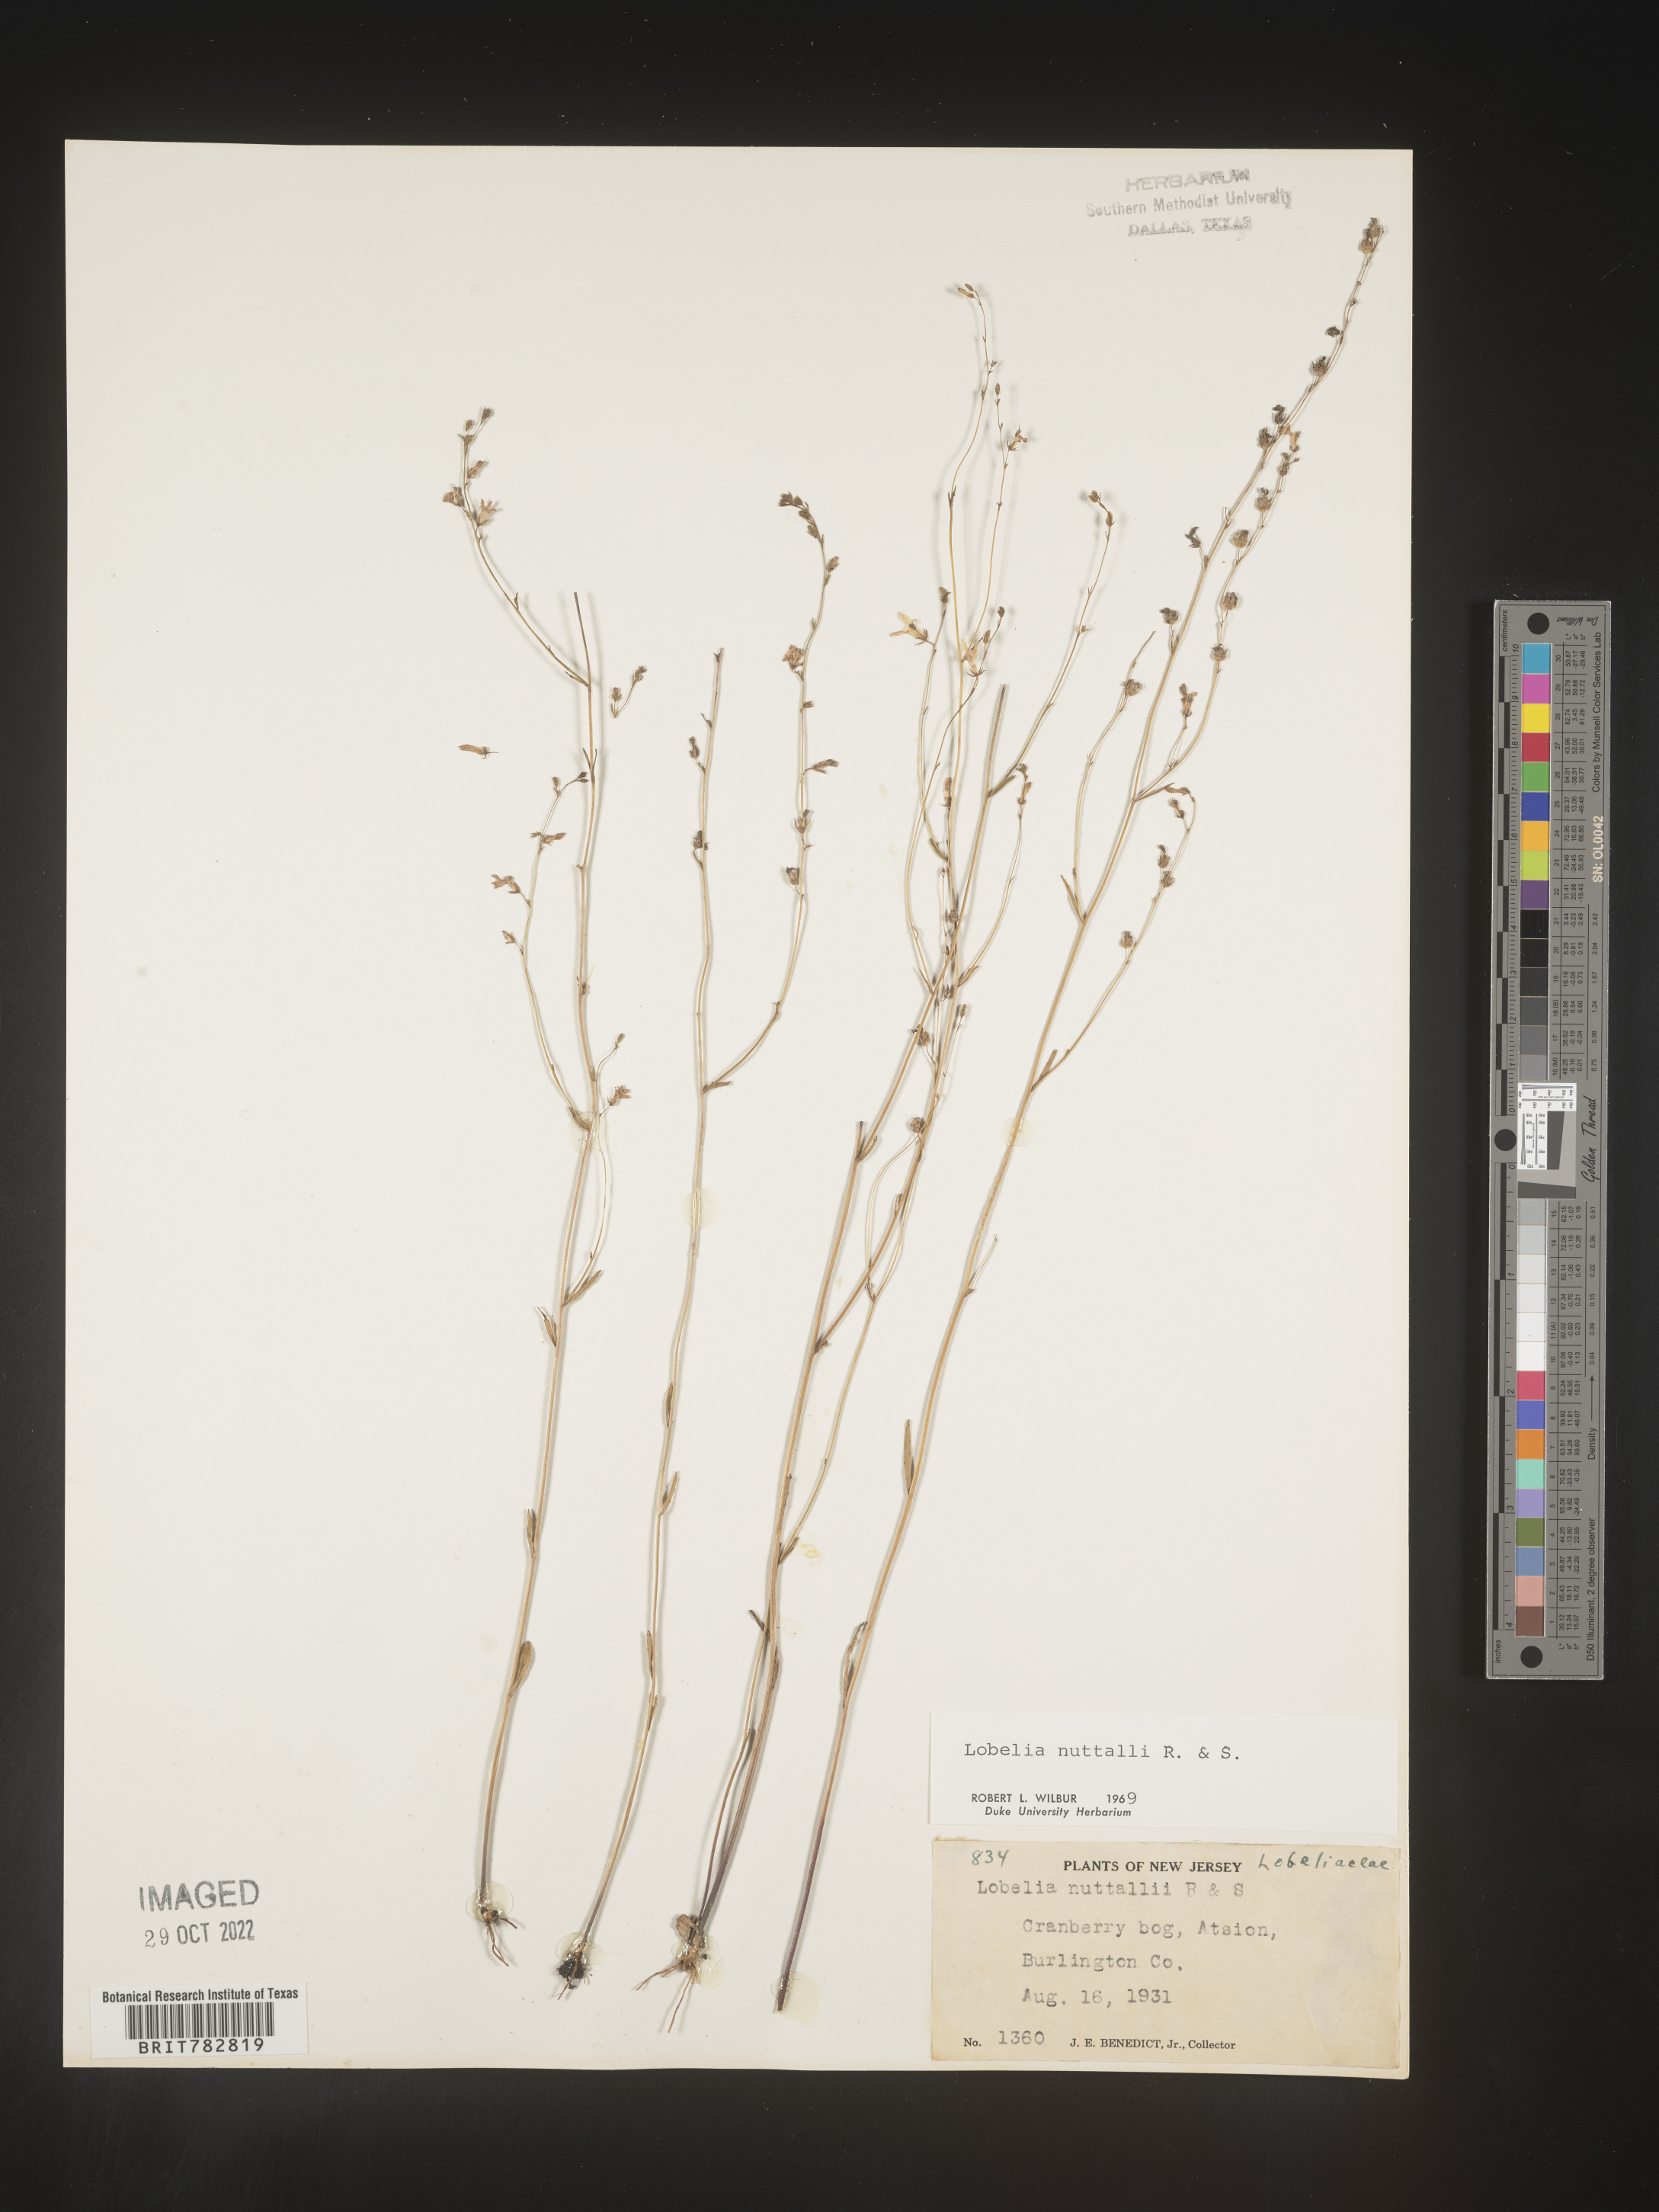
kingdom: Plantae
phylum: Tracheophyta
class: Magnoliopsida
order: Asterales
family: Campanulaceae
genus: Lobelia
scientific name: Lobelia nuttallii
